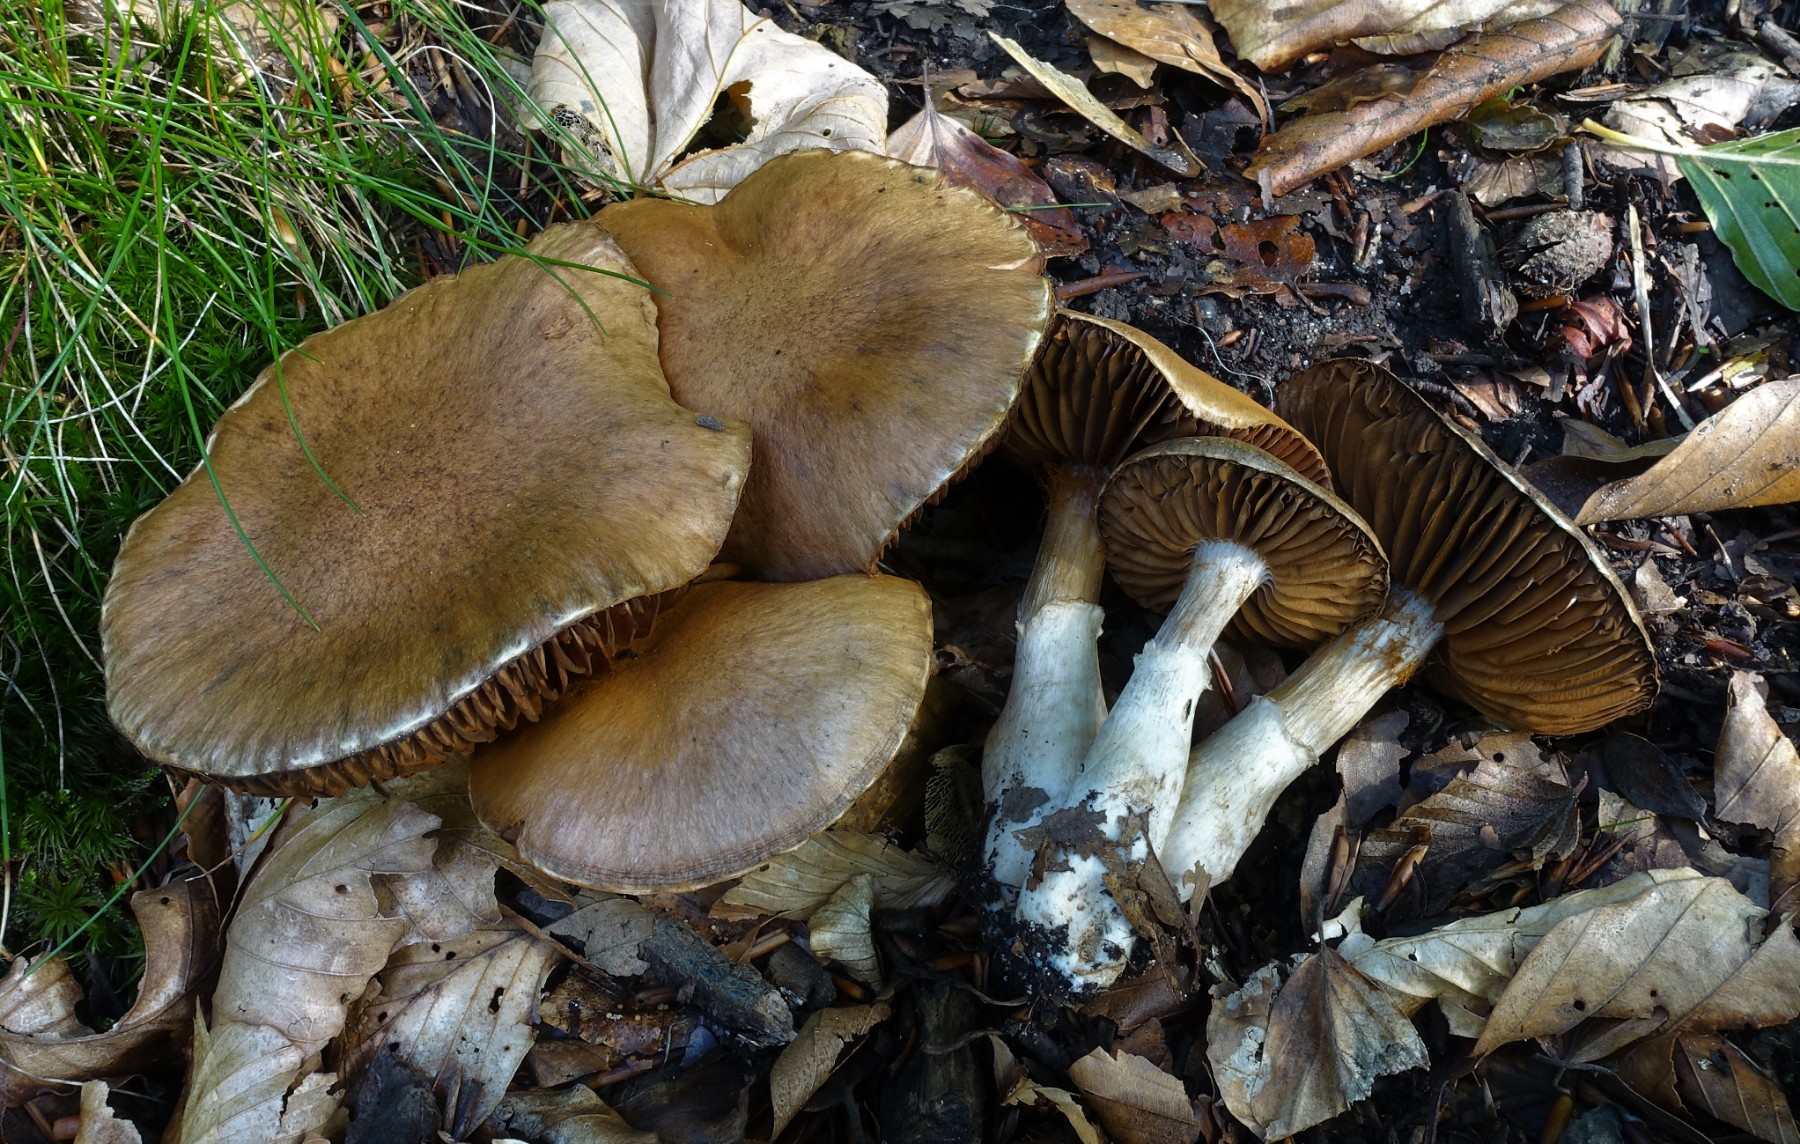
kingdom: Fungi
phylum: Basidiomycota
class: Agaricomycetes
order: Agaricales
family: Cortinariaceae
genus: Cortinarius
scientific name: Cortinarius torvus
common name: champignonagtig slørhat
